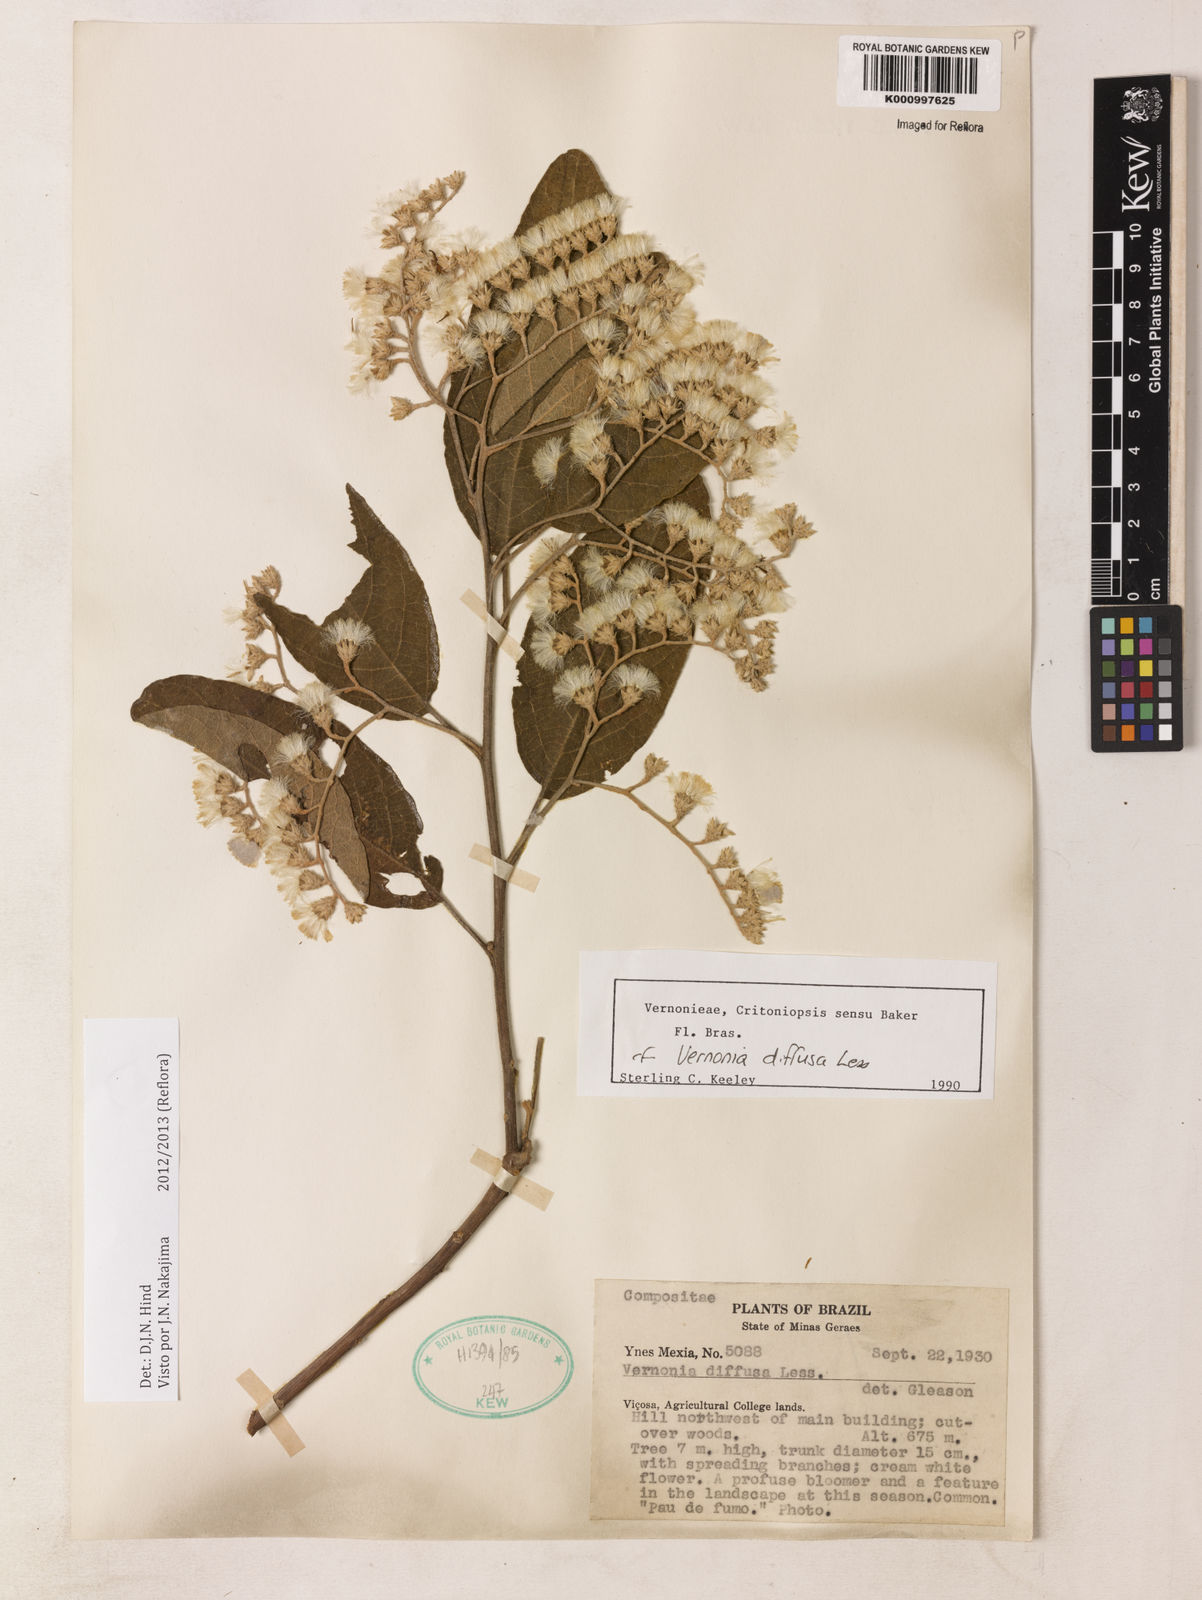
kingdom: Plantae
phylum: Tracheophyta
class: Magnoliopsida
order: Asterales
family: Asteraceae
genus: Vernonanthura
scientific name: Vernonanthura divaricata
